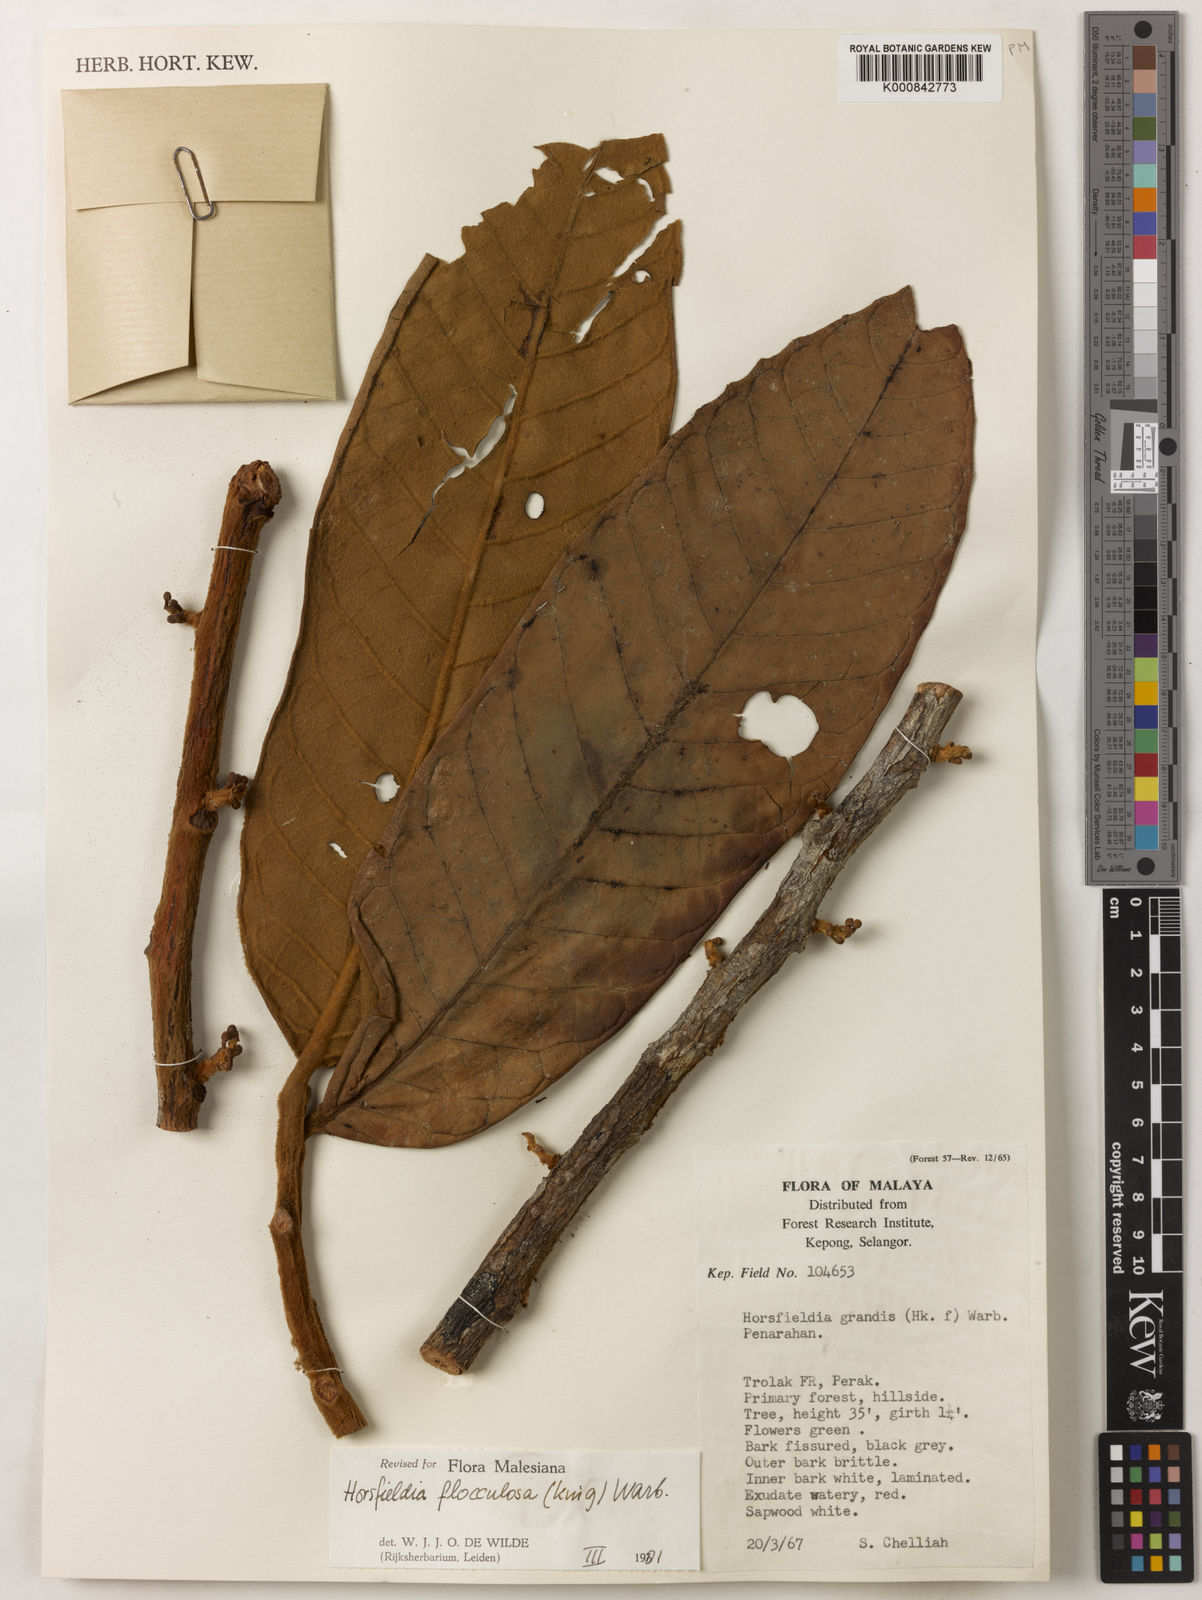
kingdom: Plantae
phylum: Tracheophyta
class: Magnoliopsida
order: Magnoliales
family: Myristicaceae
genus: Horsfieldia
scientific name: Horsfieldia flocculosa
